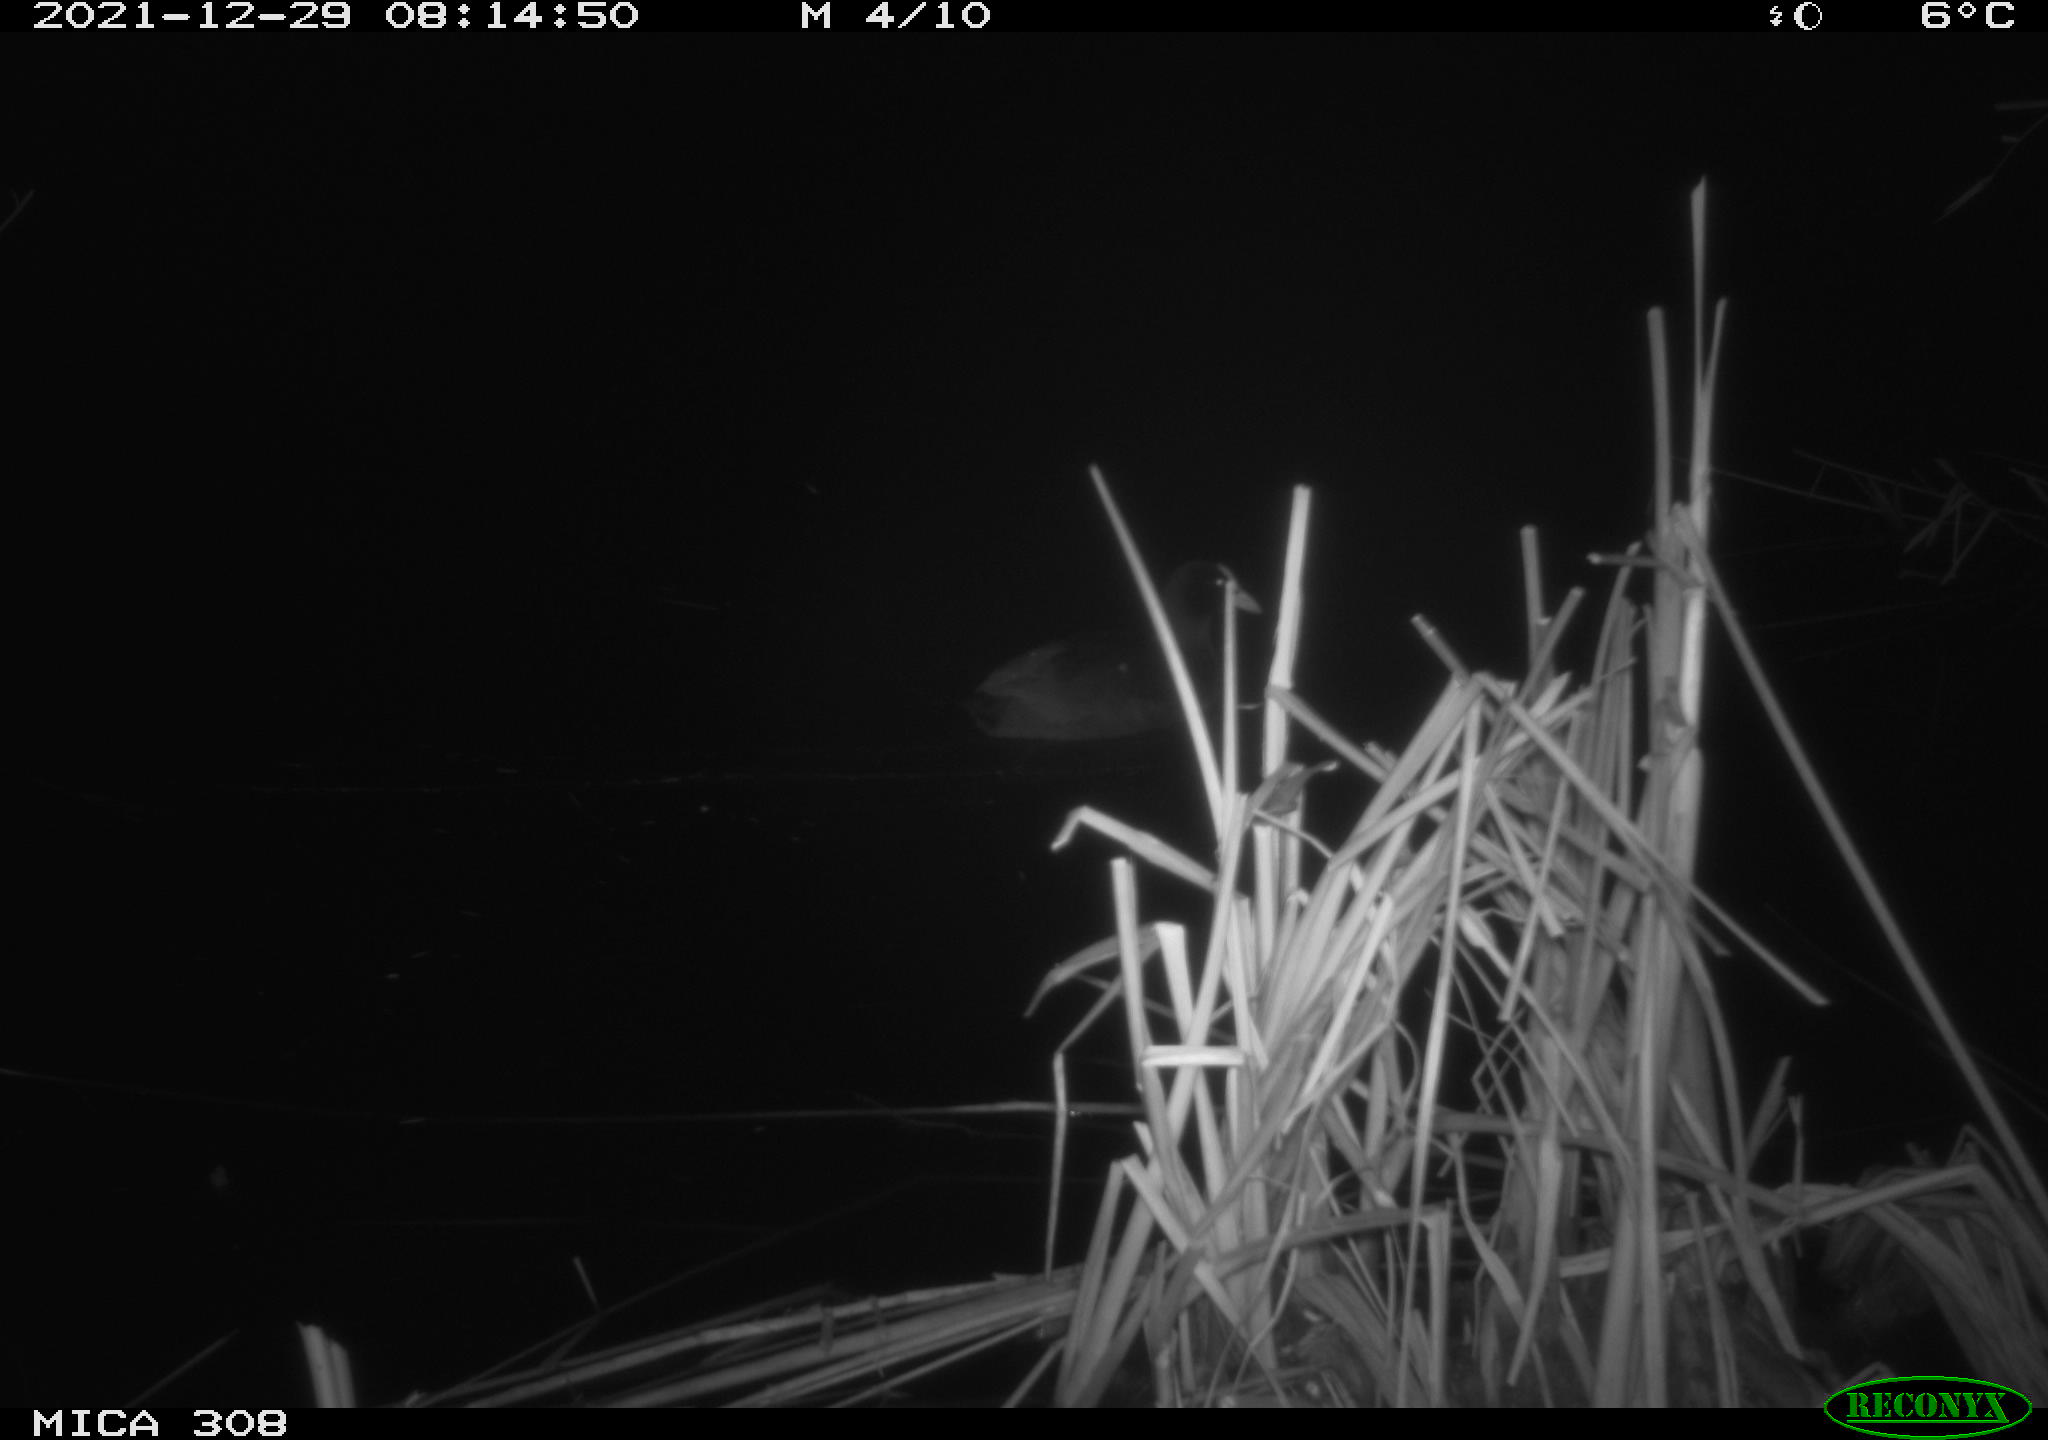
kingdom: Animalia
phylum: Chordata
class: Aves
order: Gruiformes
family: Rallidae
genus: Fulica
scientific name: Fulica atra
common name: Eurasian coot
